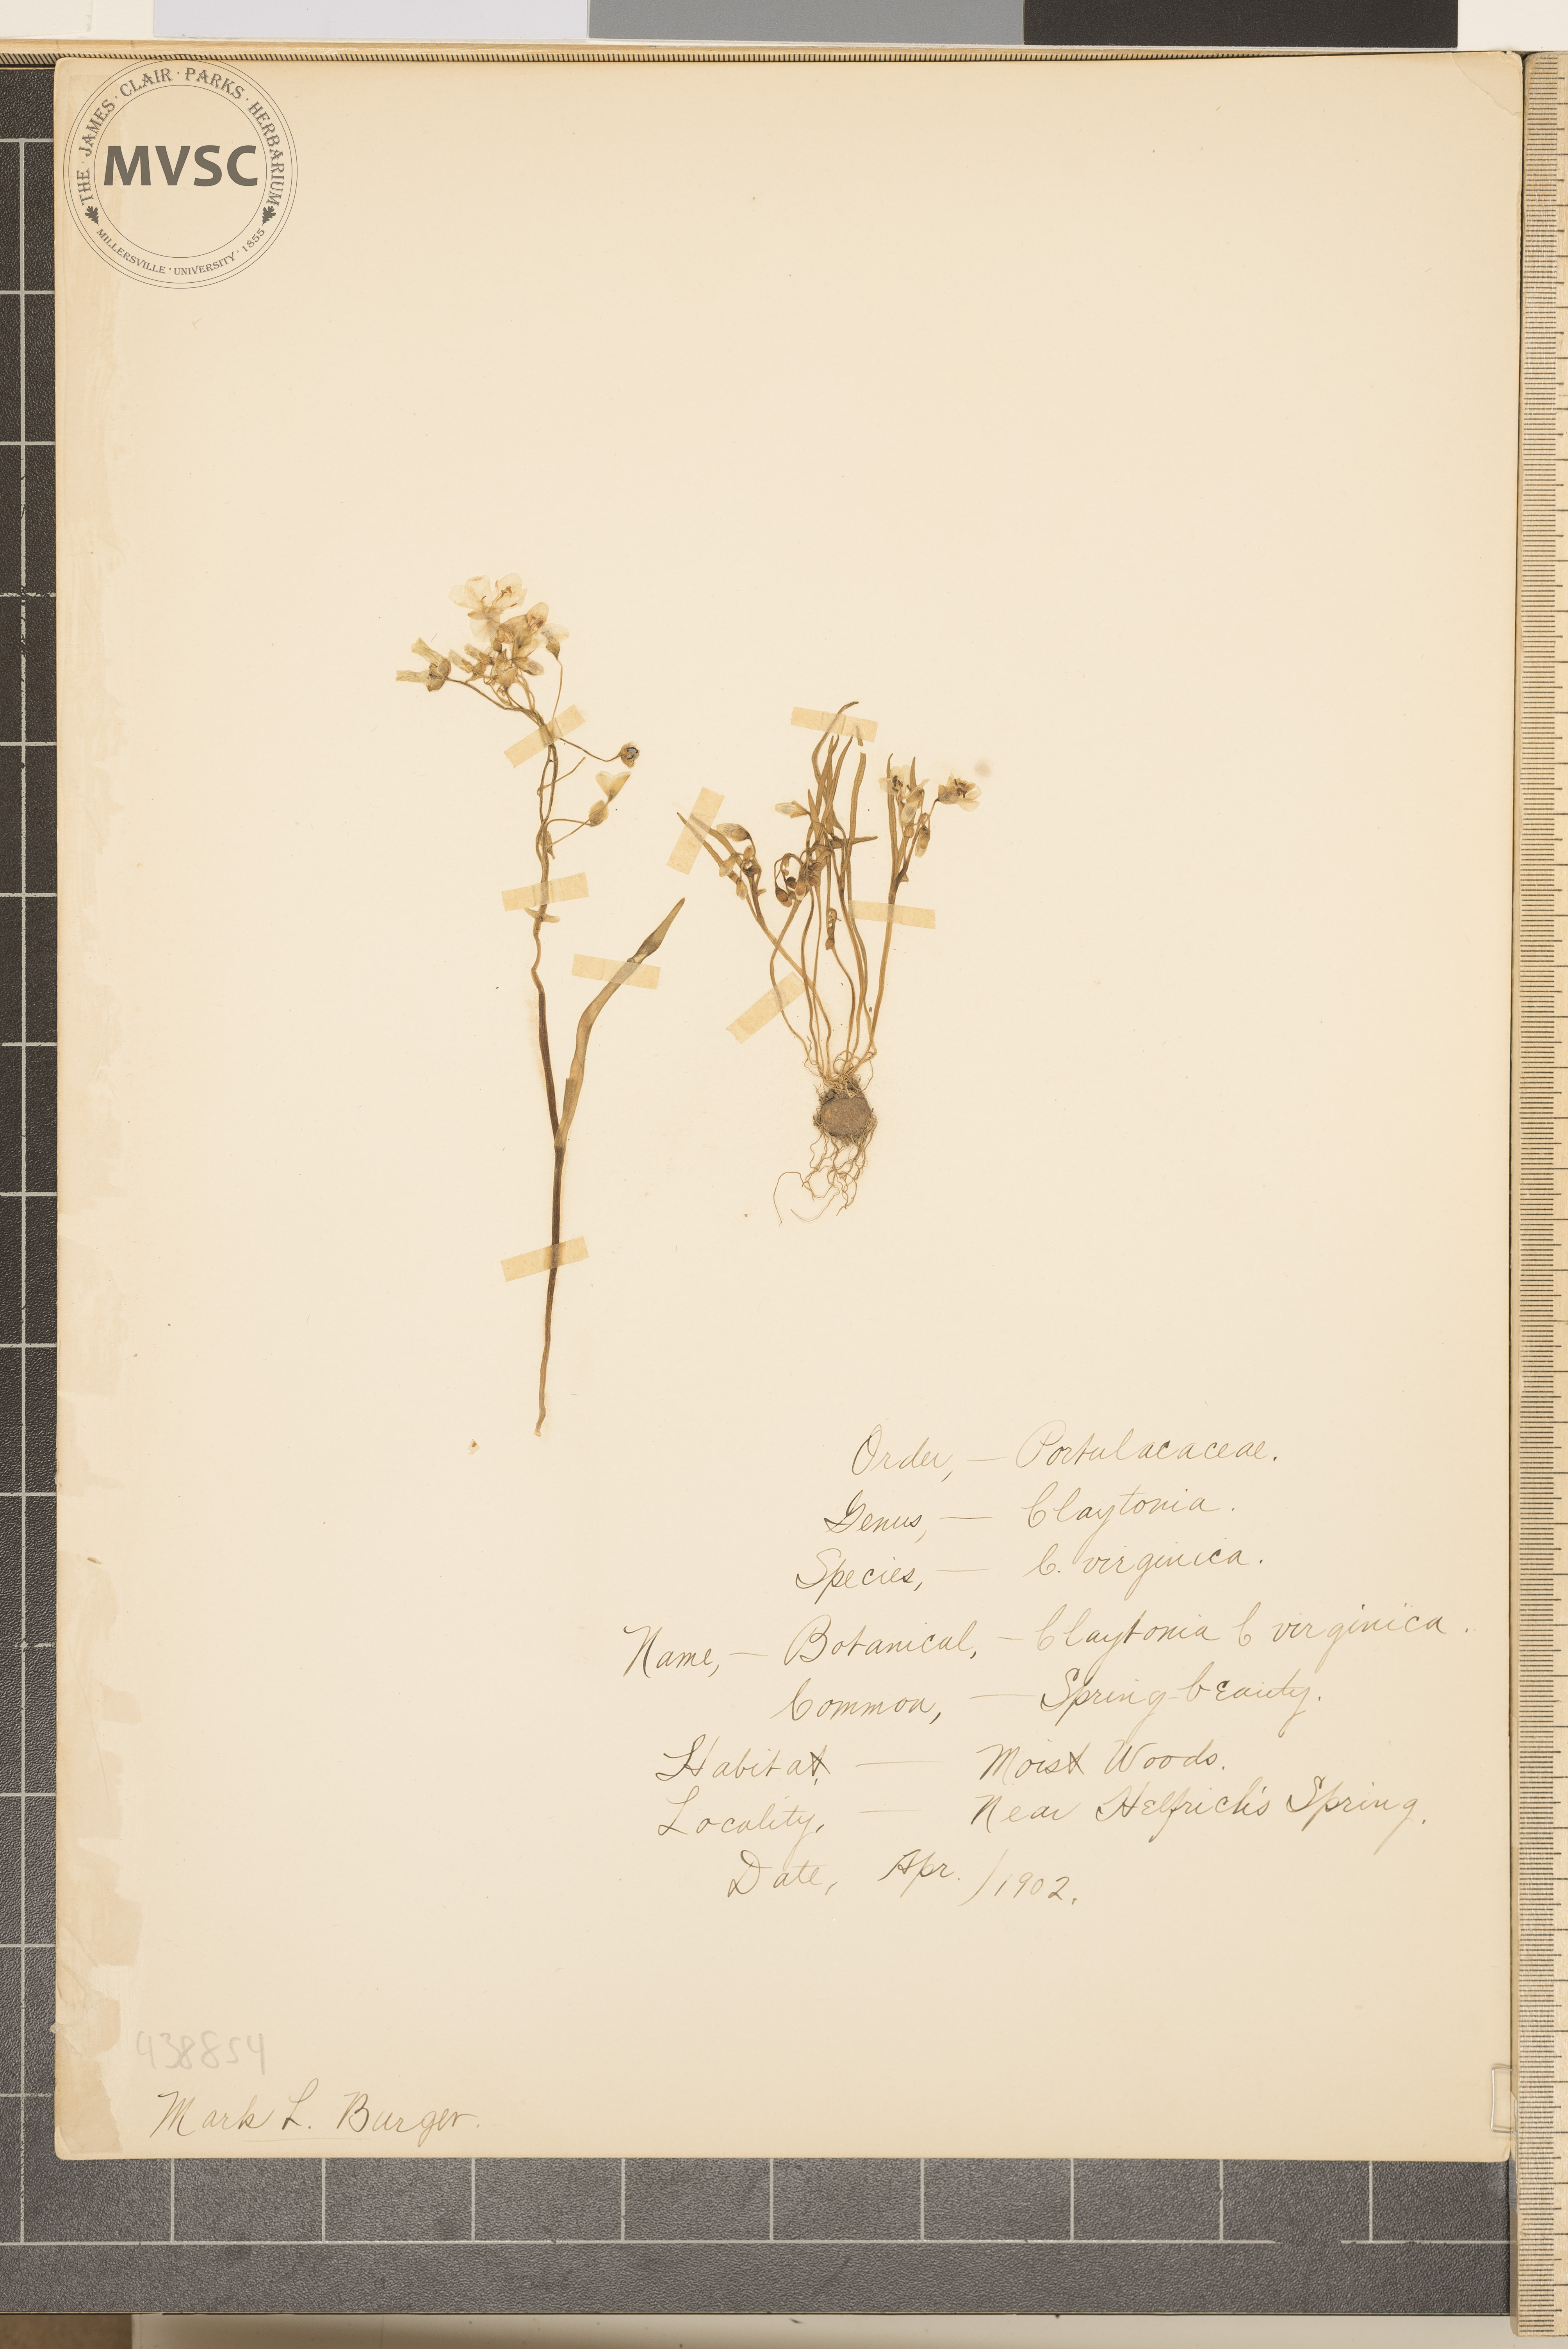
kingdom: Plantae
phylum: Tracheophyta
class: Magnoliopsida
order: Caryophyllales
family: Montiaceae
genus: Claytonia
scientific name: Claytonia virginica
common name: Virginia springbeauty
